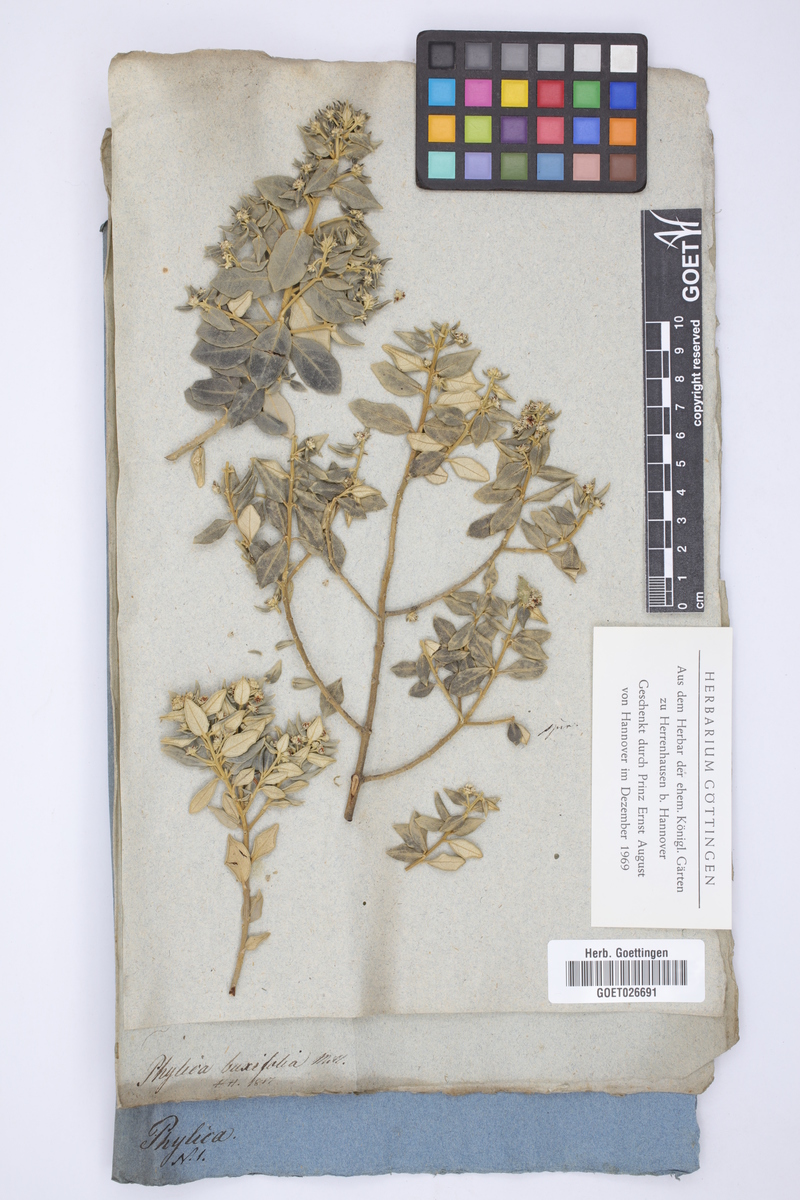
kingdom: Plantae
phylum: Tracheophyta
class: Magnoliopsida
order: Rosales
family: Rhamnaceae
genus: Phylica
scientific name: Phylica buxifolia
